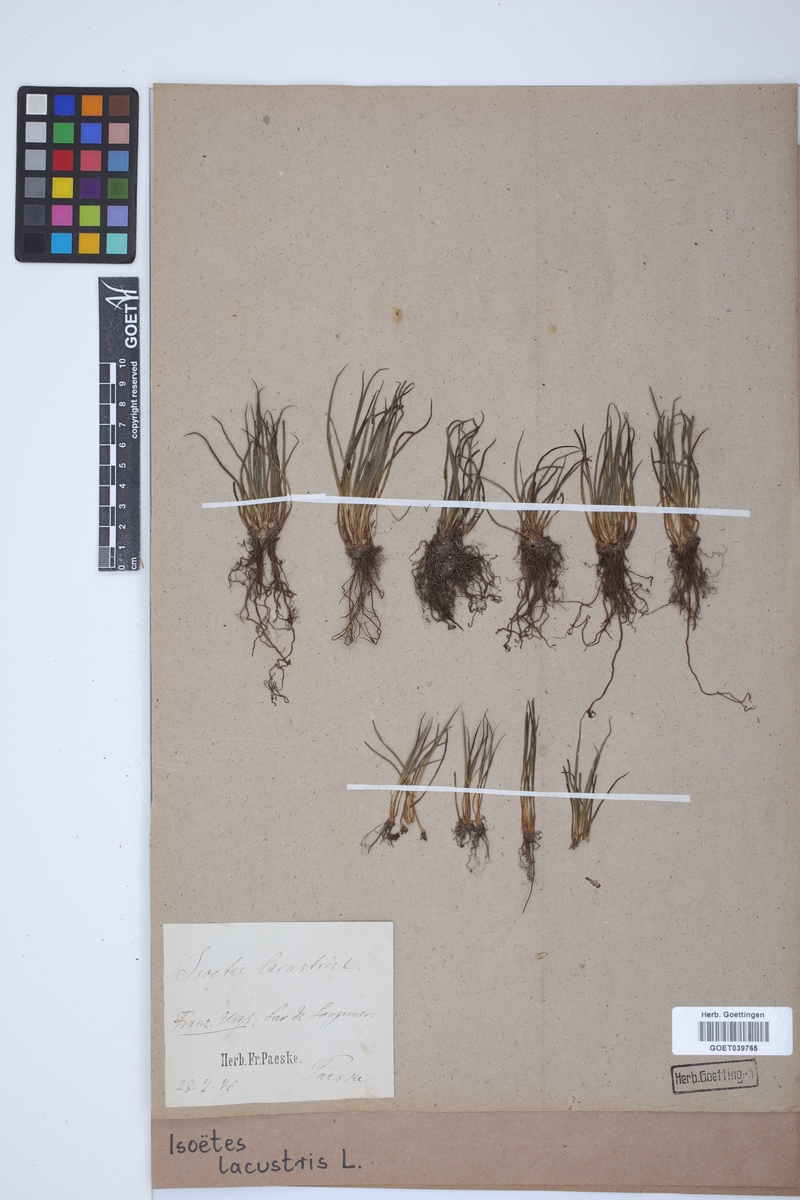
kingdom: Plantae
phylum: Tracheophyta
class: Lycopodiopsida
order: Isoetales
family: Isoetaceae
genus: Isoetes
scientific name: Isoetes lacustris
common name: Common quillwort
